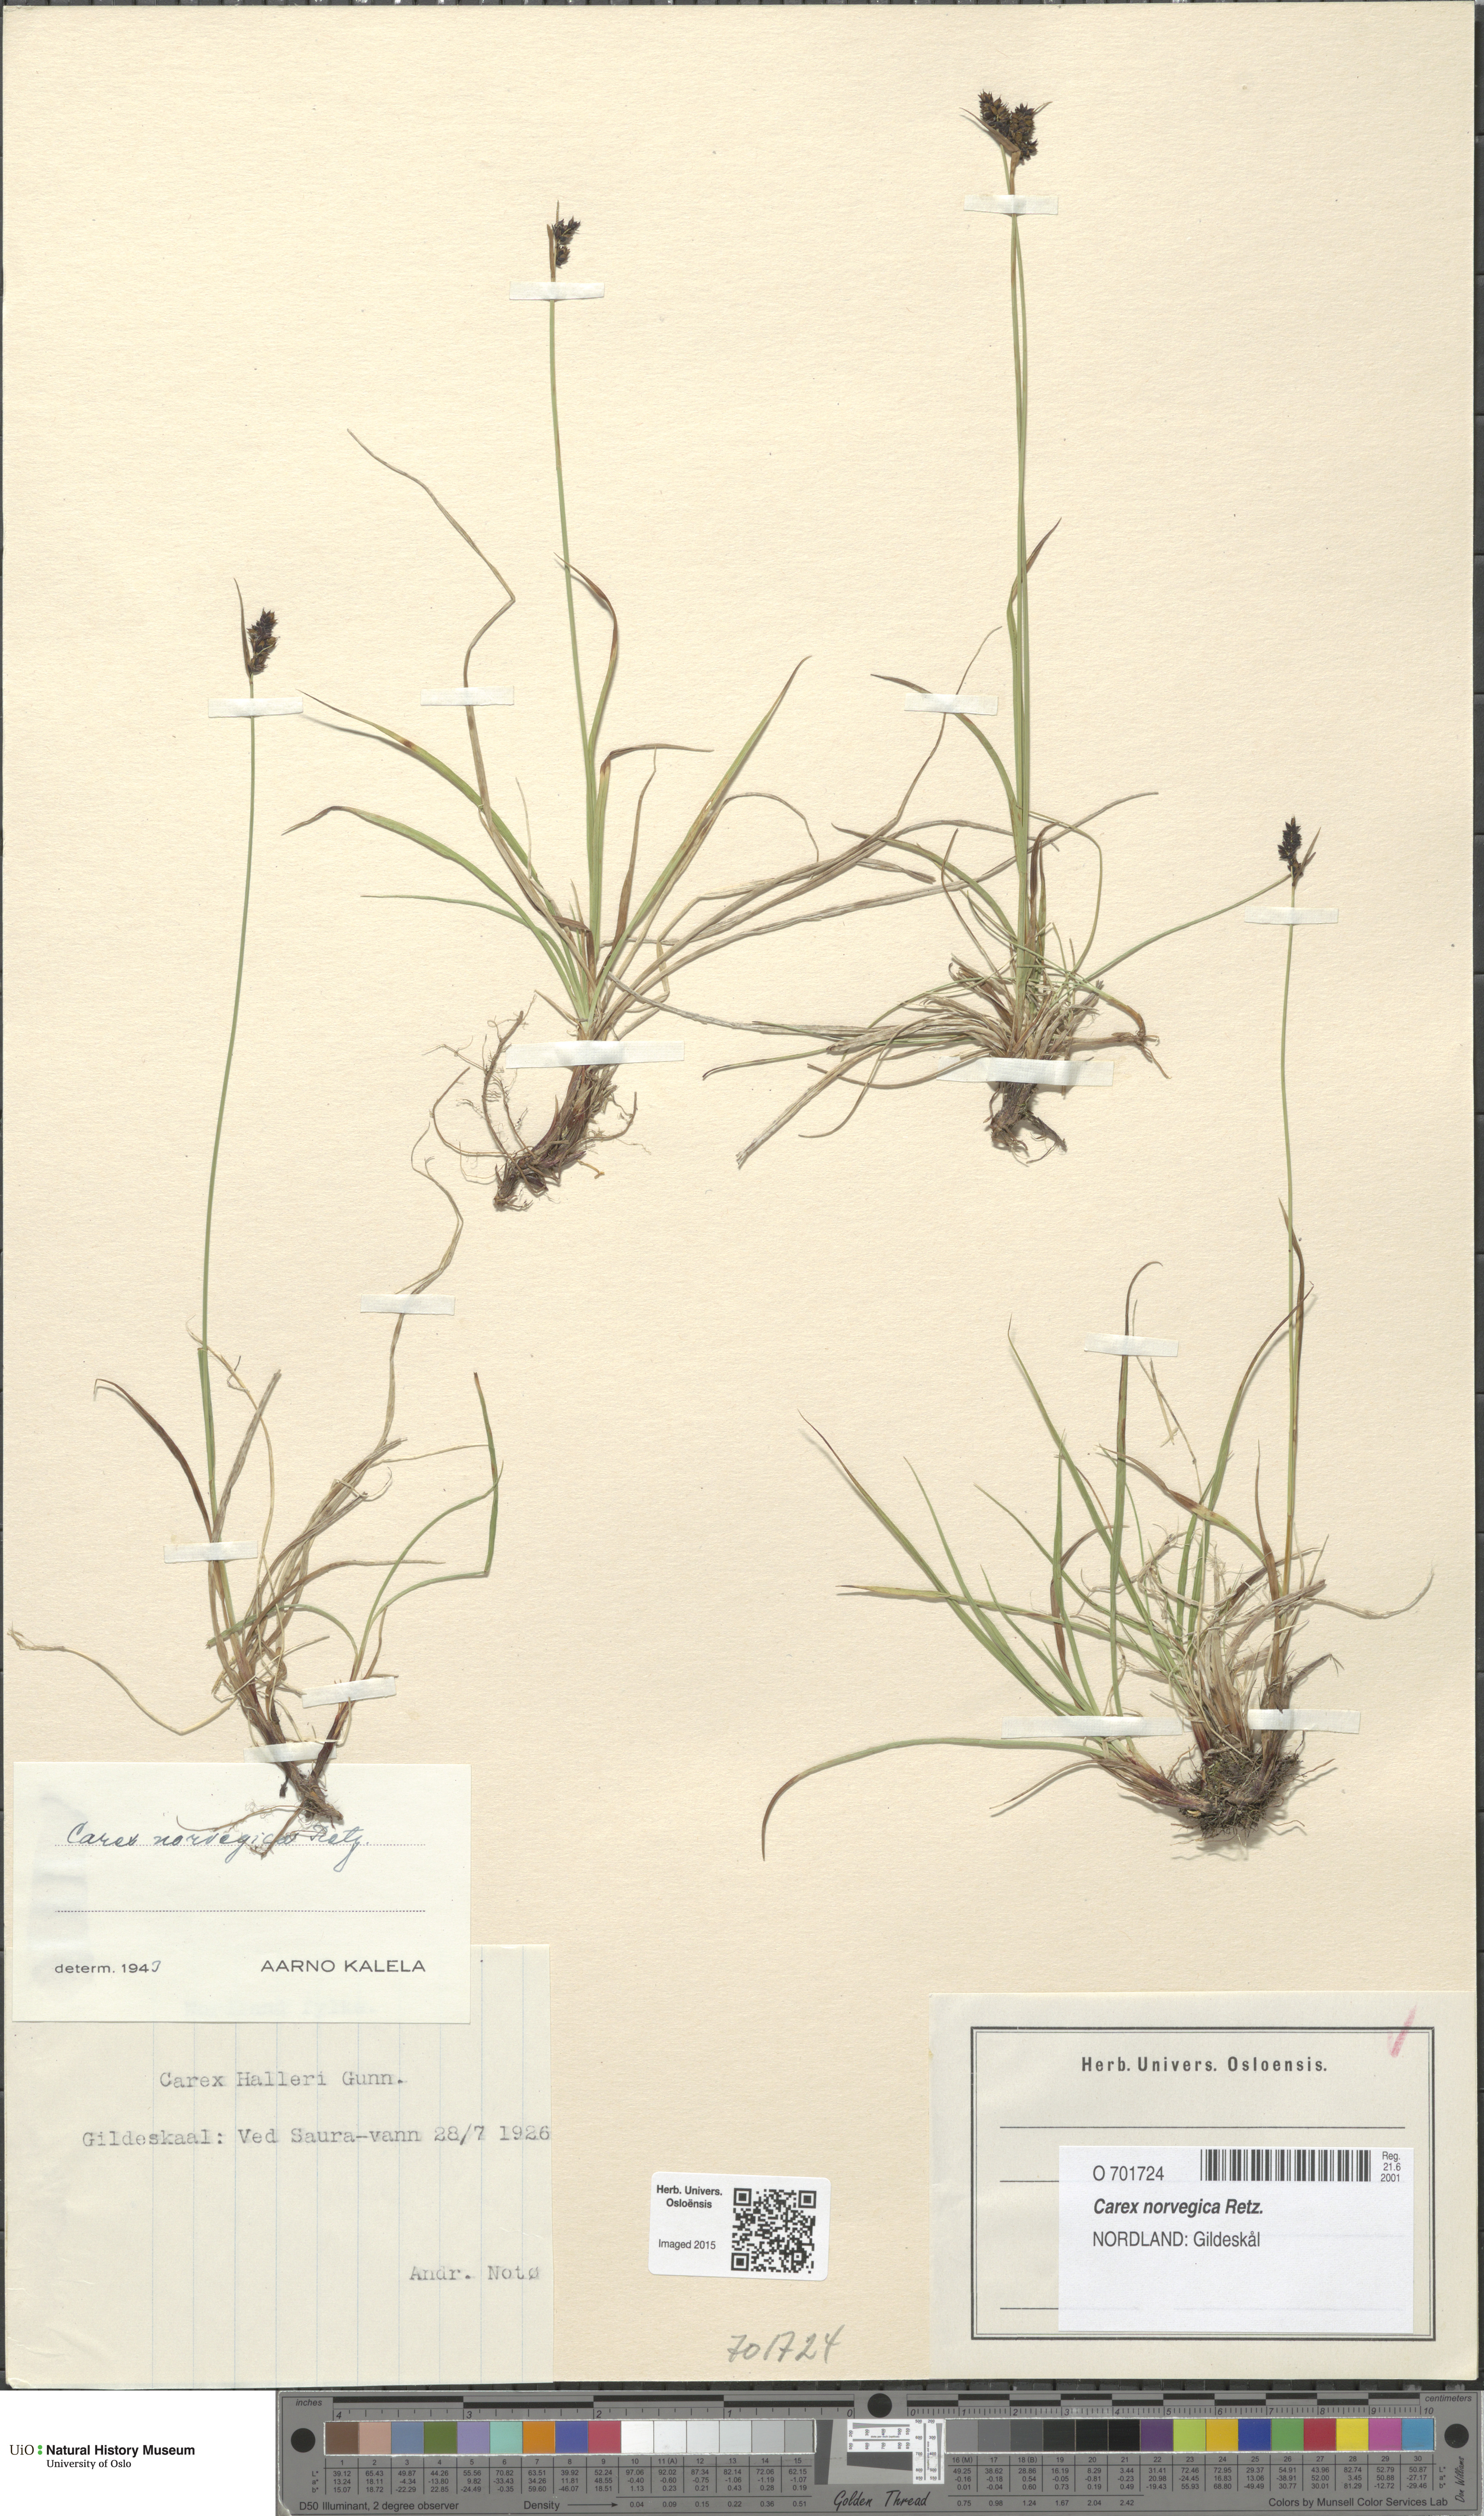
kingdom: Plantae
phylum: Tracheophyta
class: Liliopsida
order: Poales
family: Cyperaceae
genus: Carex
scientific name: Carex norvegica
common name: Close-headed alpine-sedge
